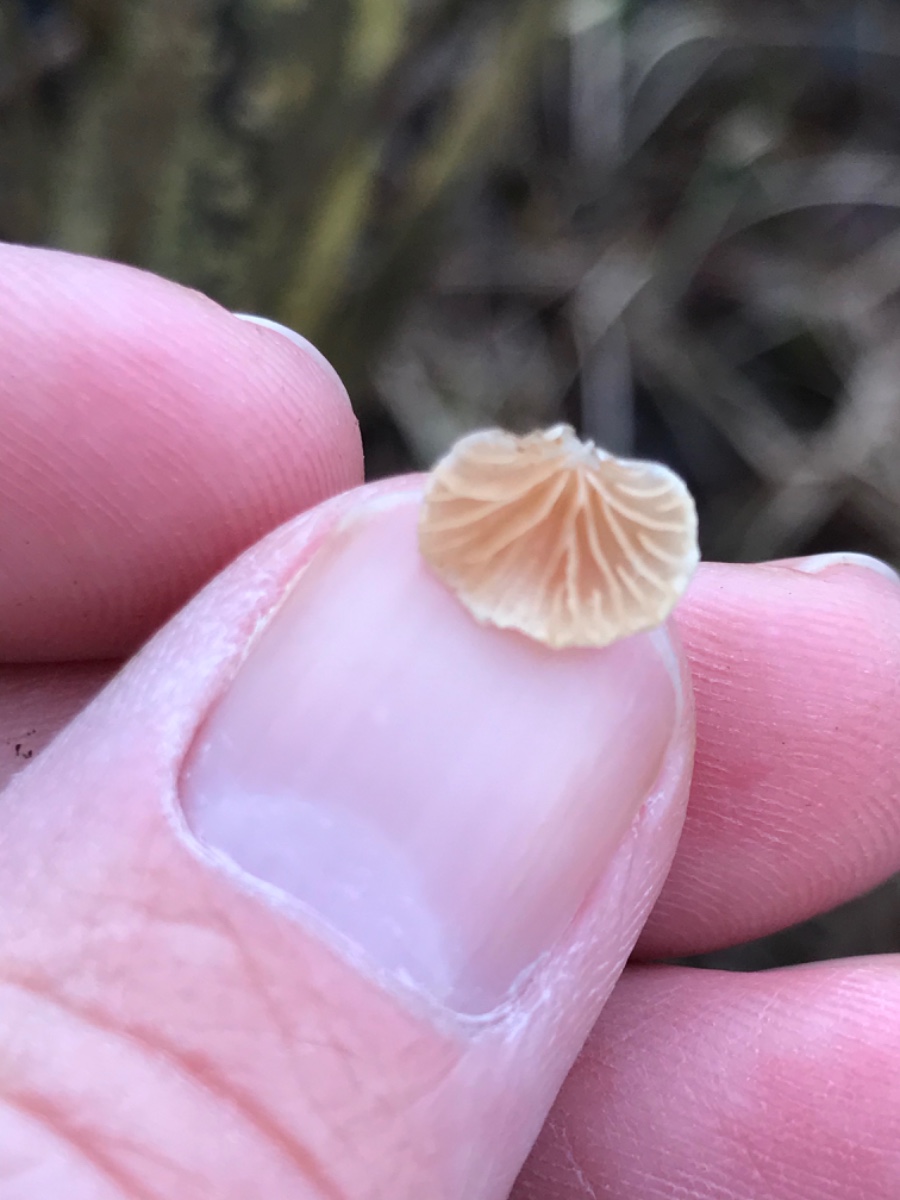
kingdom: Fungi
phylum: Basidiomycota
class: Agaricomycetes
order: Agaricales
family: Crepidotaceae
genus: Crepidotus
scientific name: Crepidotus
